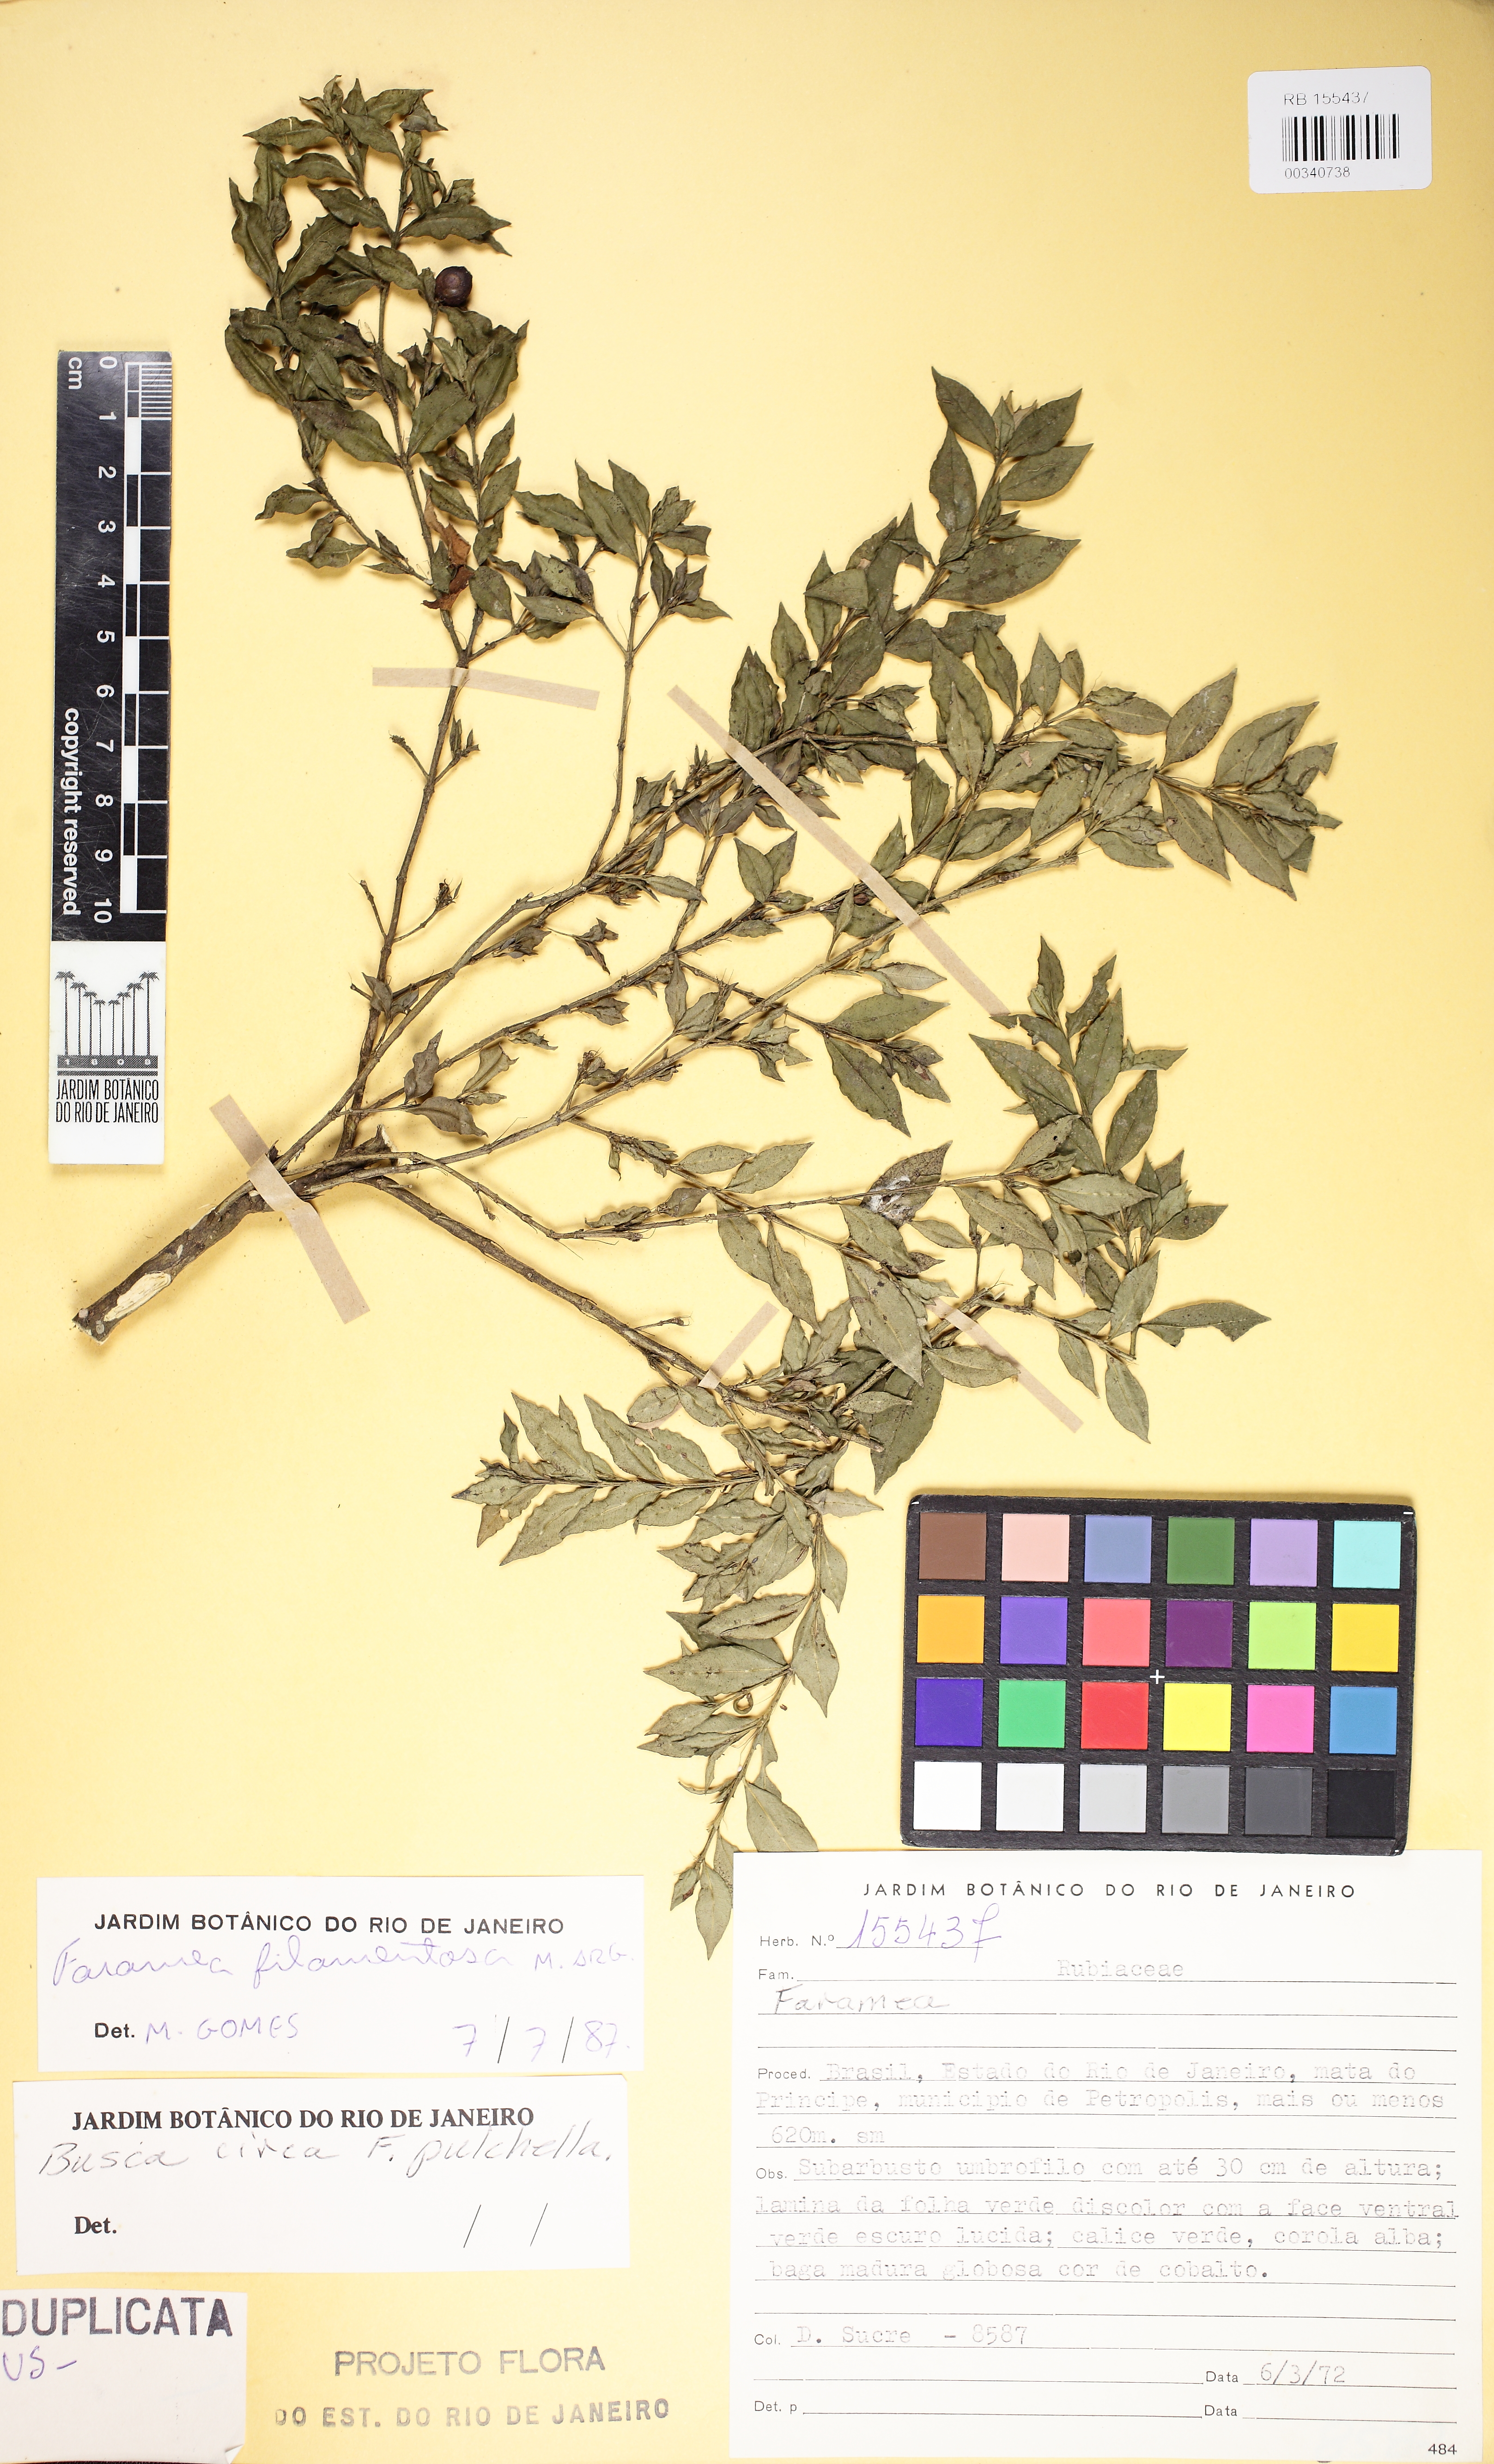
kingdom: Plantae
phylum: Tracheophyta
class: Magnoliopsida
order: Gentianales
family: Rubiaceae
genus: Faramea
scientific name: Faramea filamentosa
